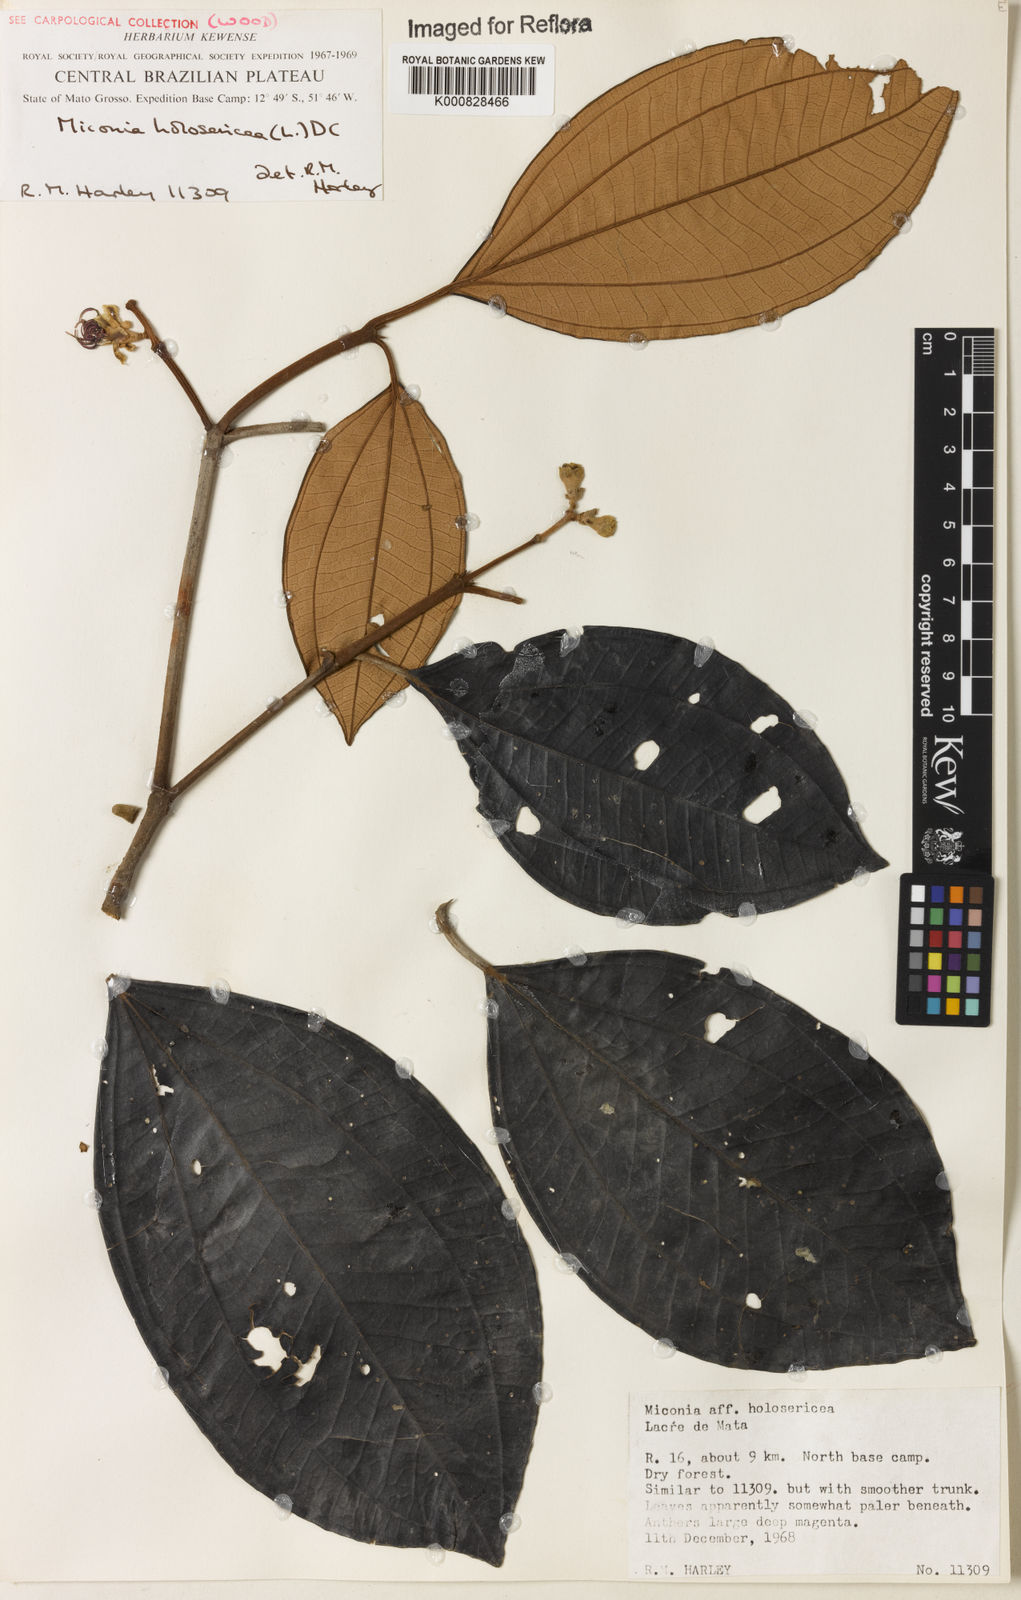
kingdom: Plantae
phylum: Tracheophyta
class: Magnoliopsida
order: Myrtales
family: Melastomataceae
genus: Miconia
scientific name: Miconia holosericea
